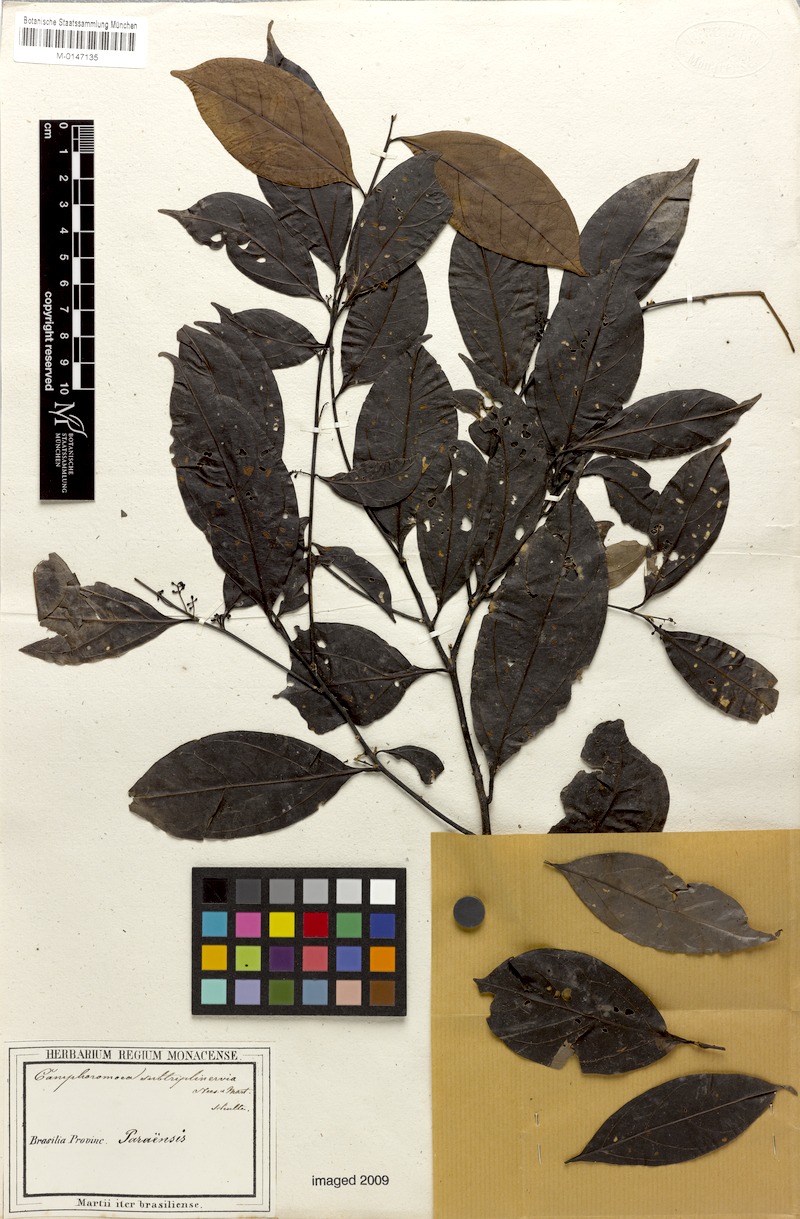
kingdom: Plantae
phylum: Tracheophyta
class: Magnoliopsida
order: Laurales
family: Lauraceae
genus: Ocotea
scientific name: Ocotea camphoromoea
